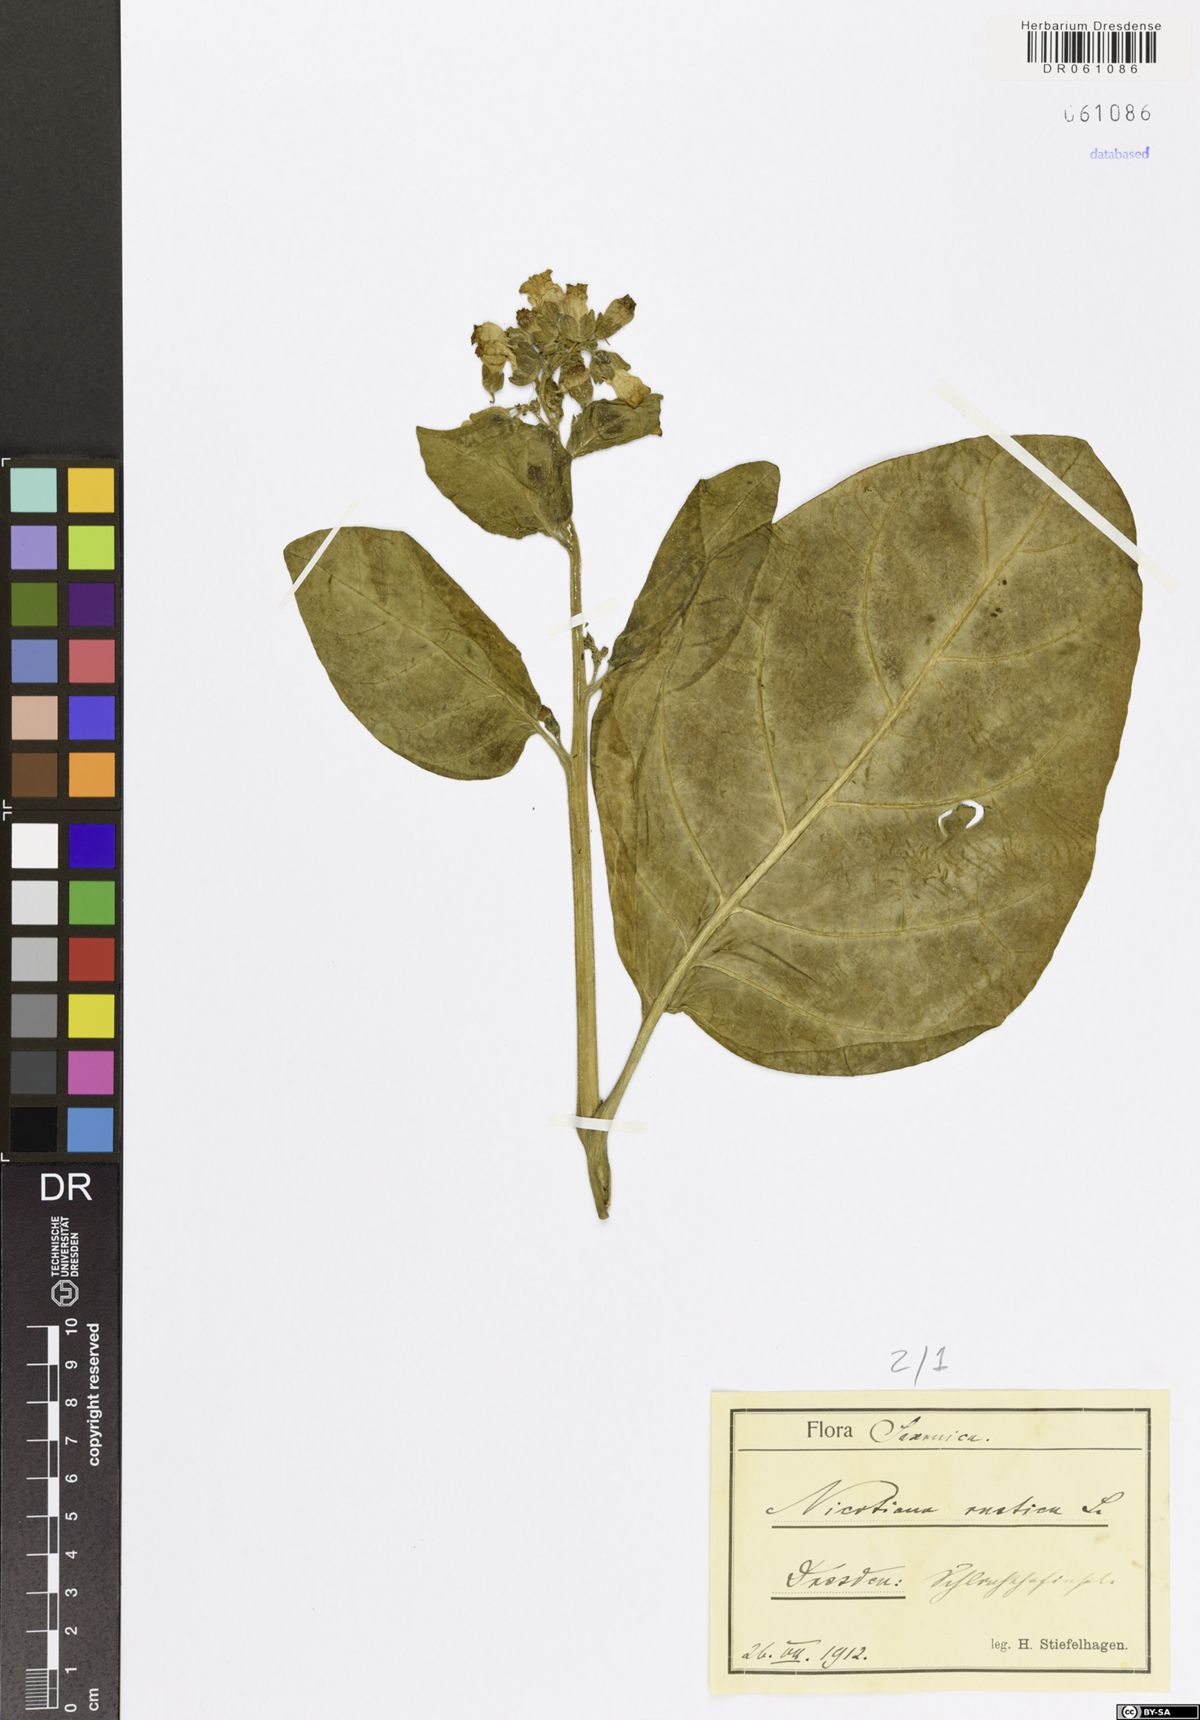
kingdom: Plantae
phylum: Tracheophyta
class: Magnoliopsida
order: Solanales
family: Solanaceae
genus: Nicotiana
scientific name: Nicotiana rustica
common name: Wild tobacco
